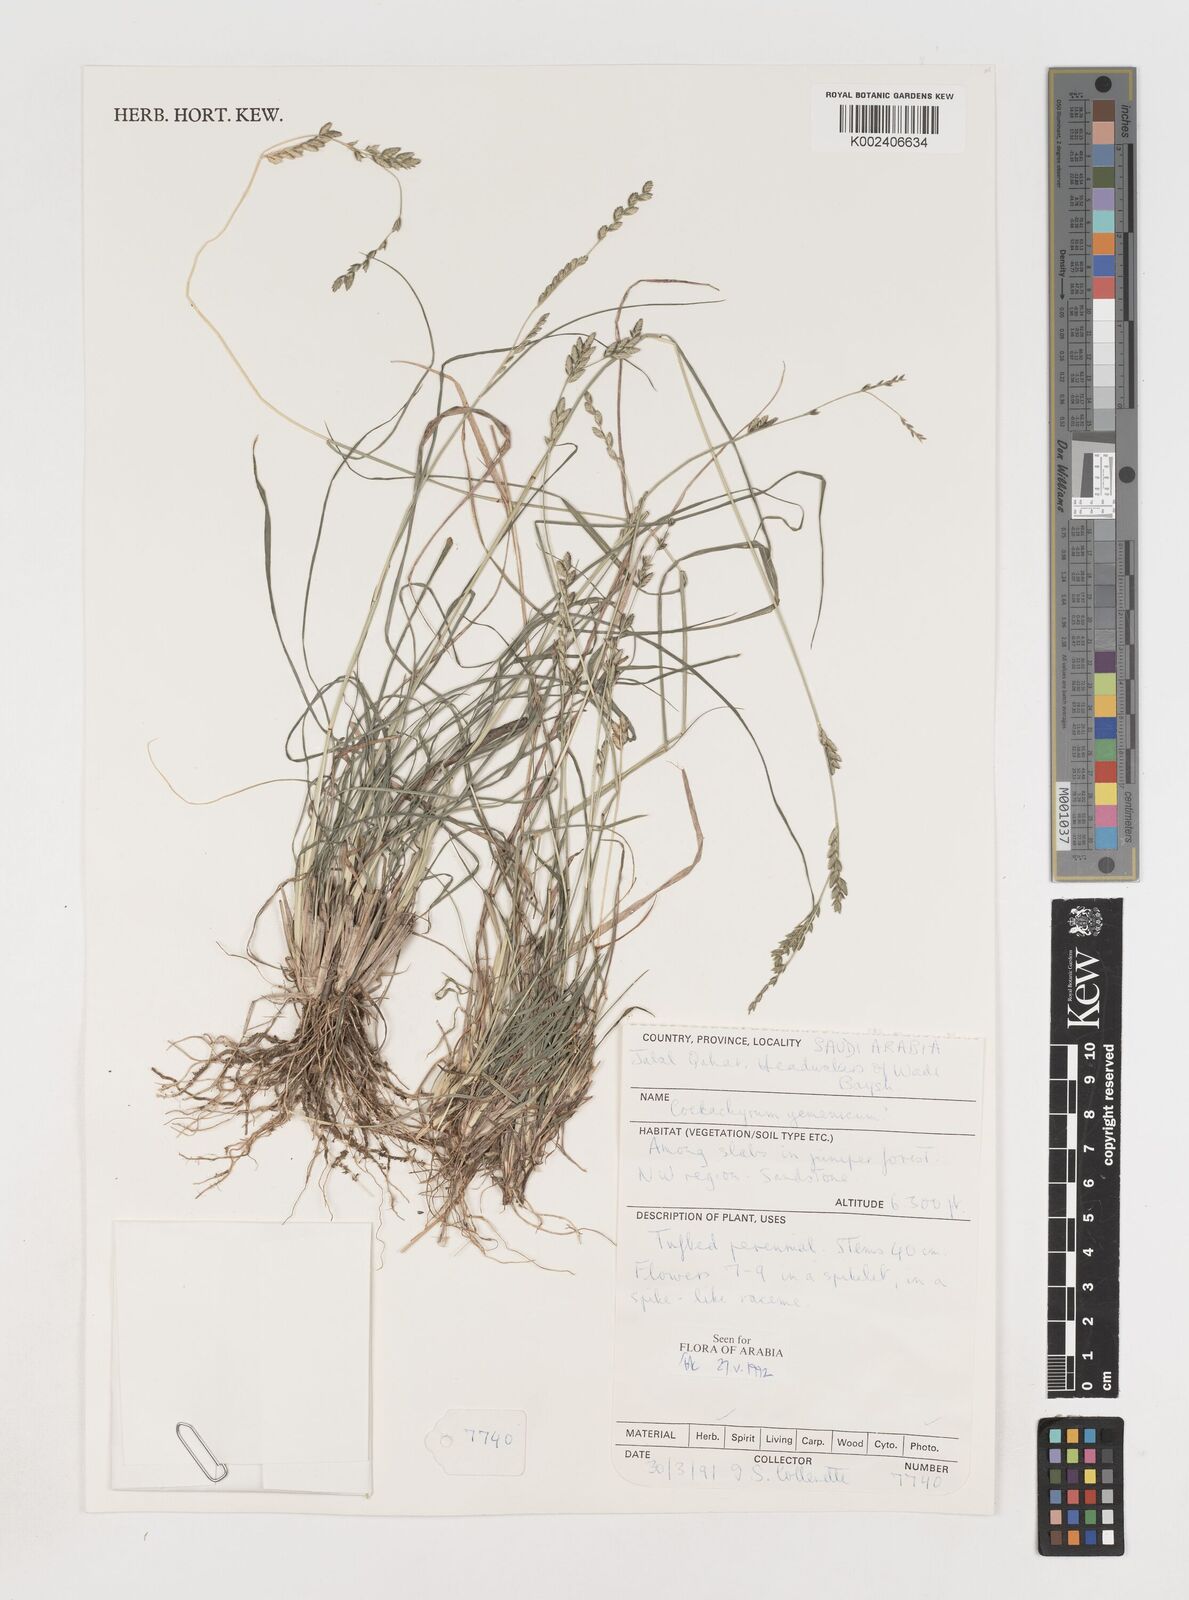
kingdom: Plantae
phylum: Tracheophyta
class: Liliopsida
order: Poales
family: Poaceae
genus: Disakisperma
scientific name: Disakisperma yemenicum
